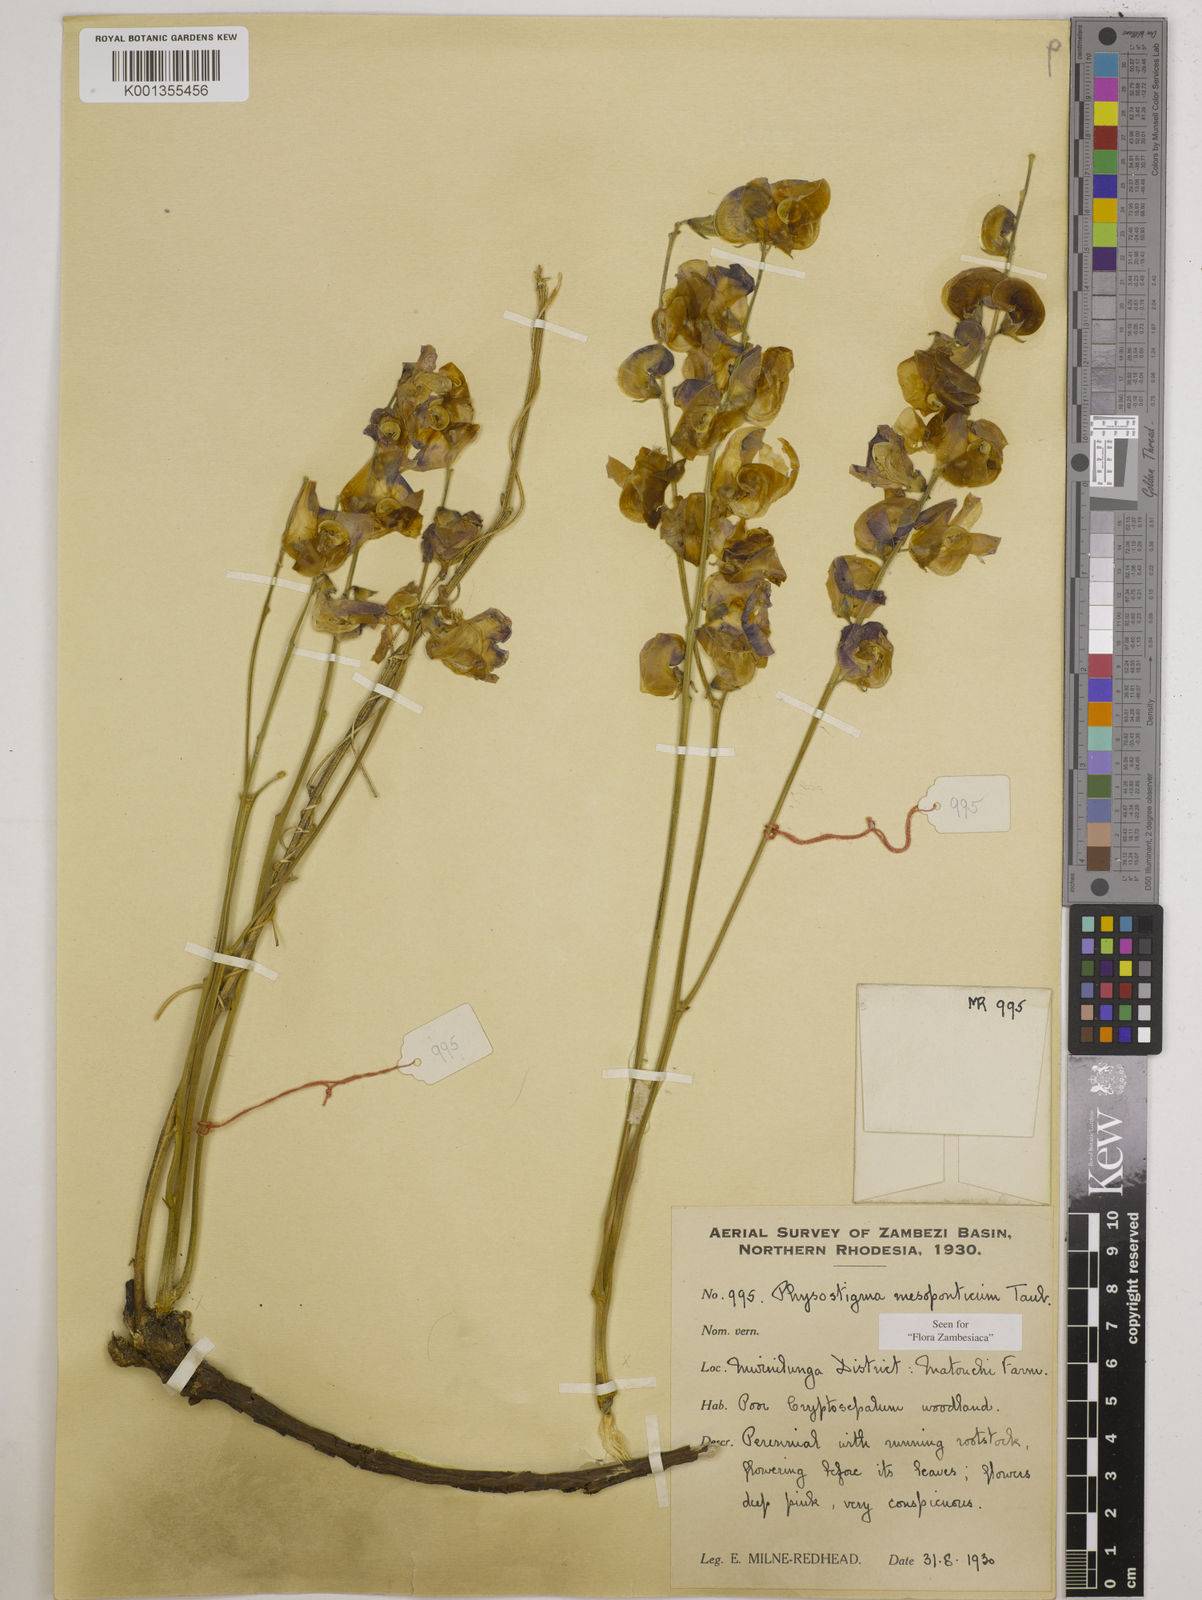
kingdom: Plantae
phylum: Tracheophyta
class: Magnoliopsida
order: Fabales
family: Fabaceae
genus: Physostigma
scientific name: Physostigma mesoponticum
